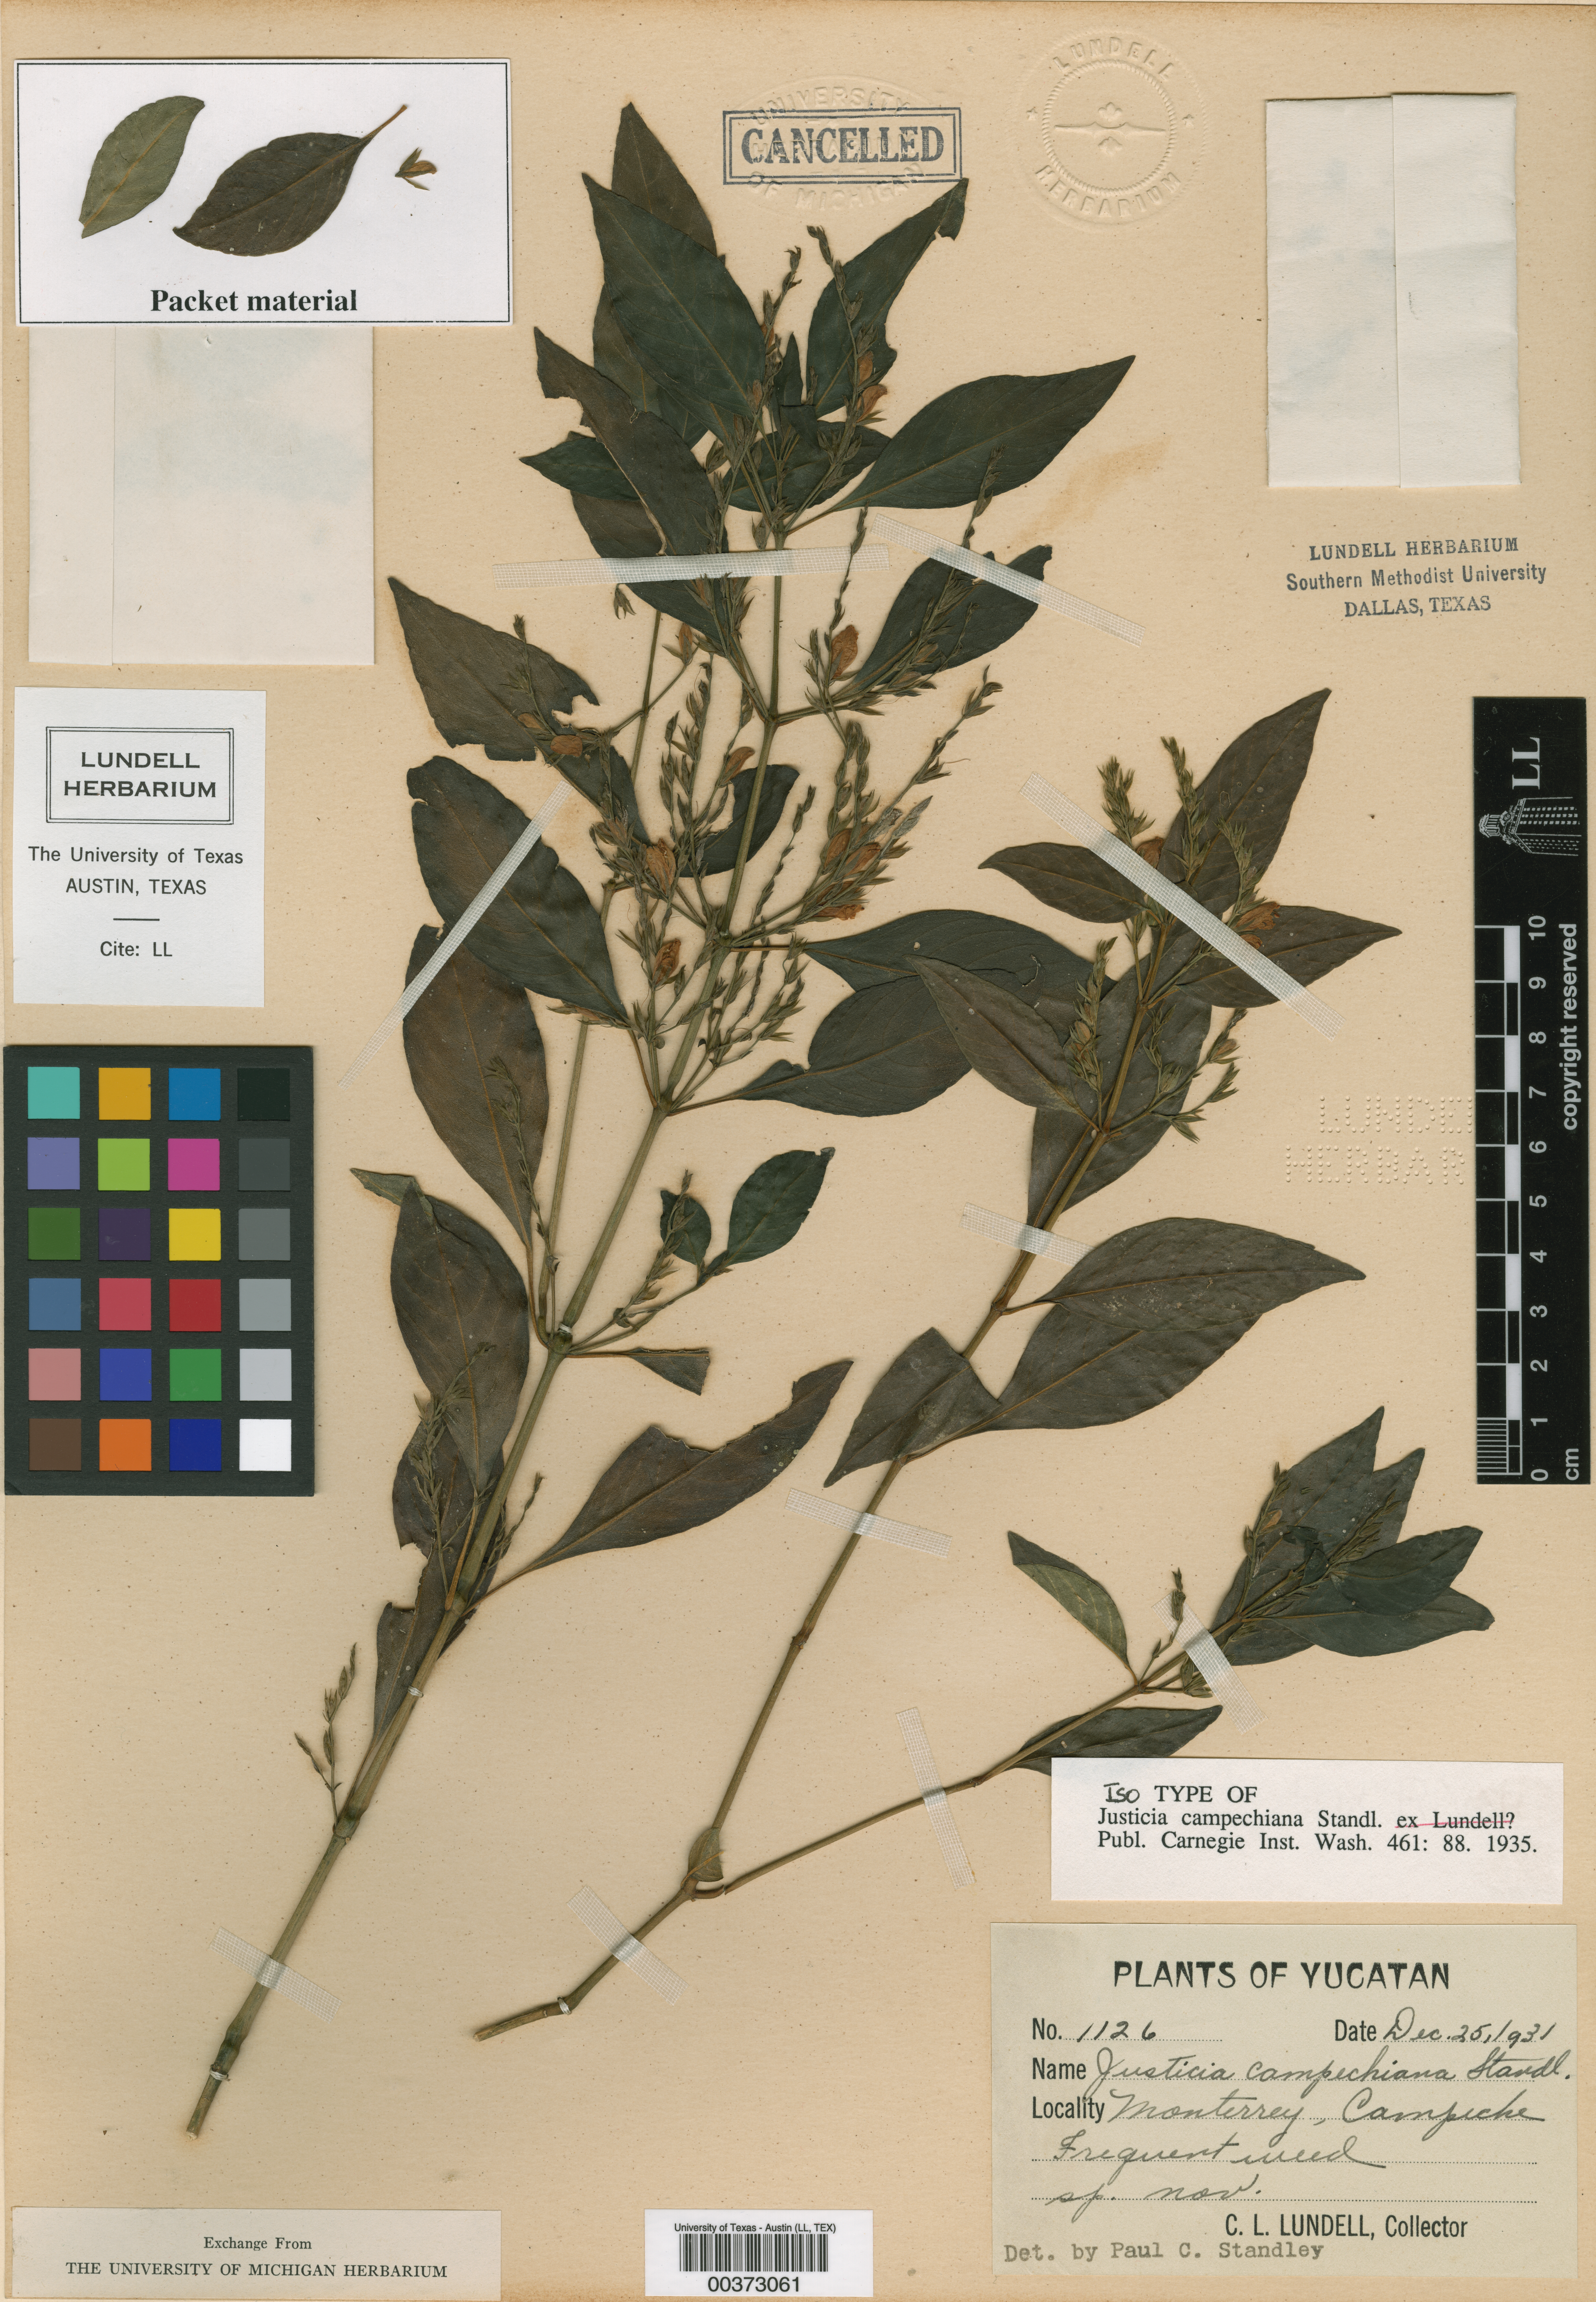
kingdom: Plantae
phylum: Tracheophyta
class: Magnoliopsida
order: Malpighiales
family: Hypericaceae
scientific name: Hypericaceae
